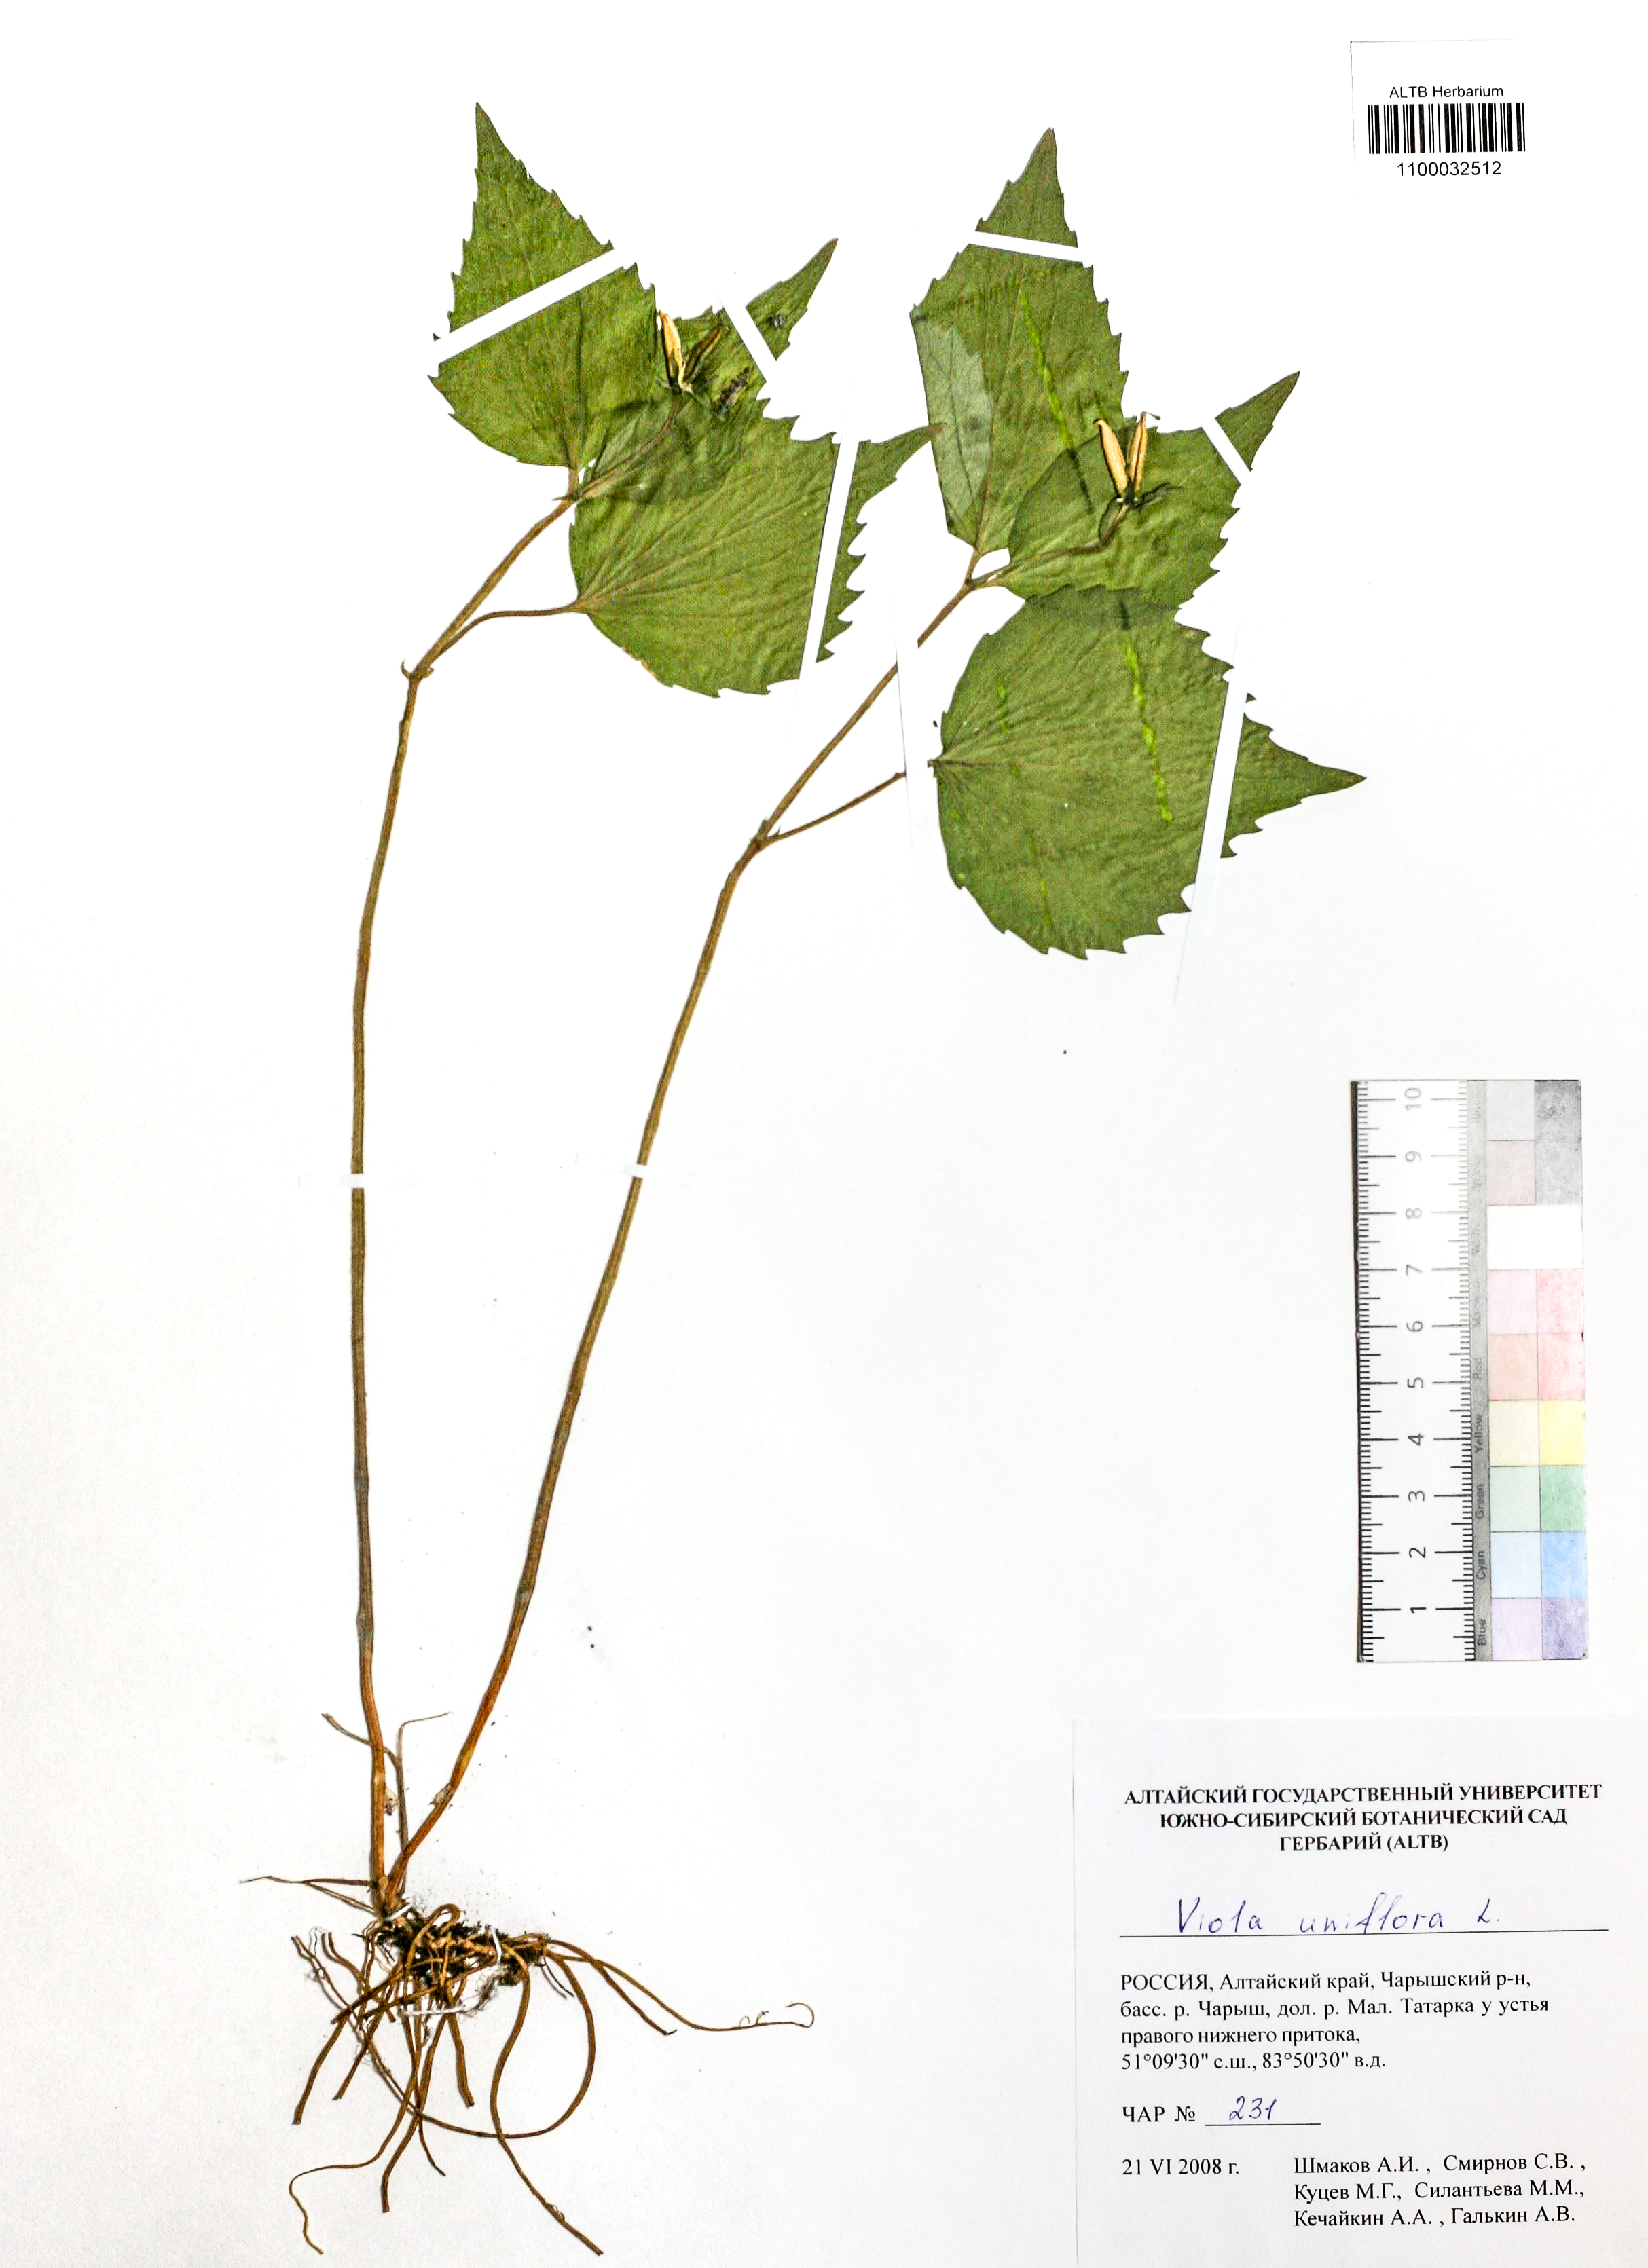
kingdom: Plantae
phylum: Tracheophyta
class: Magnoliopsida
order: Malpighiales
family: Violaceae
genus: Viola
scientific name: Viola uniflora
